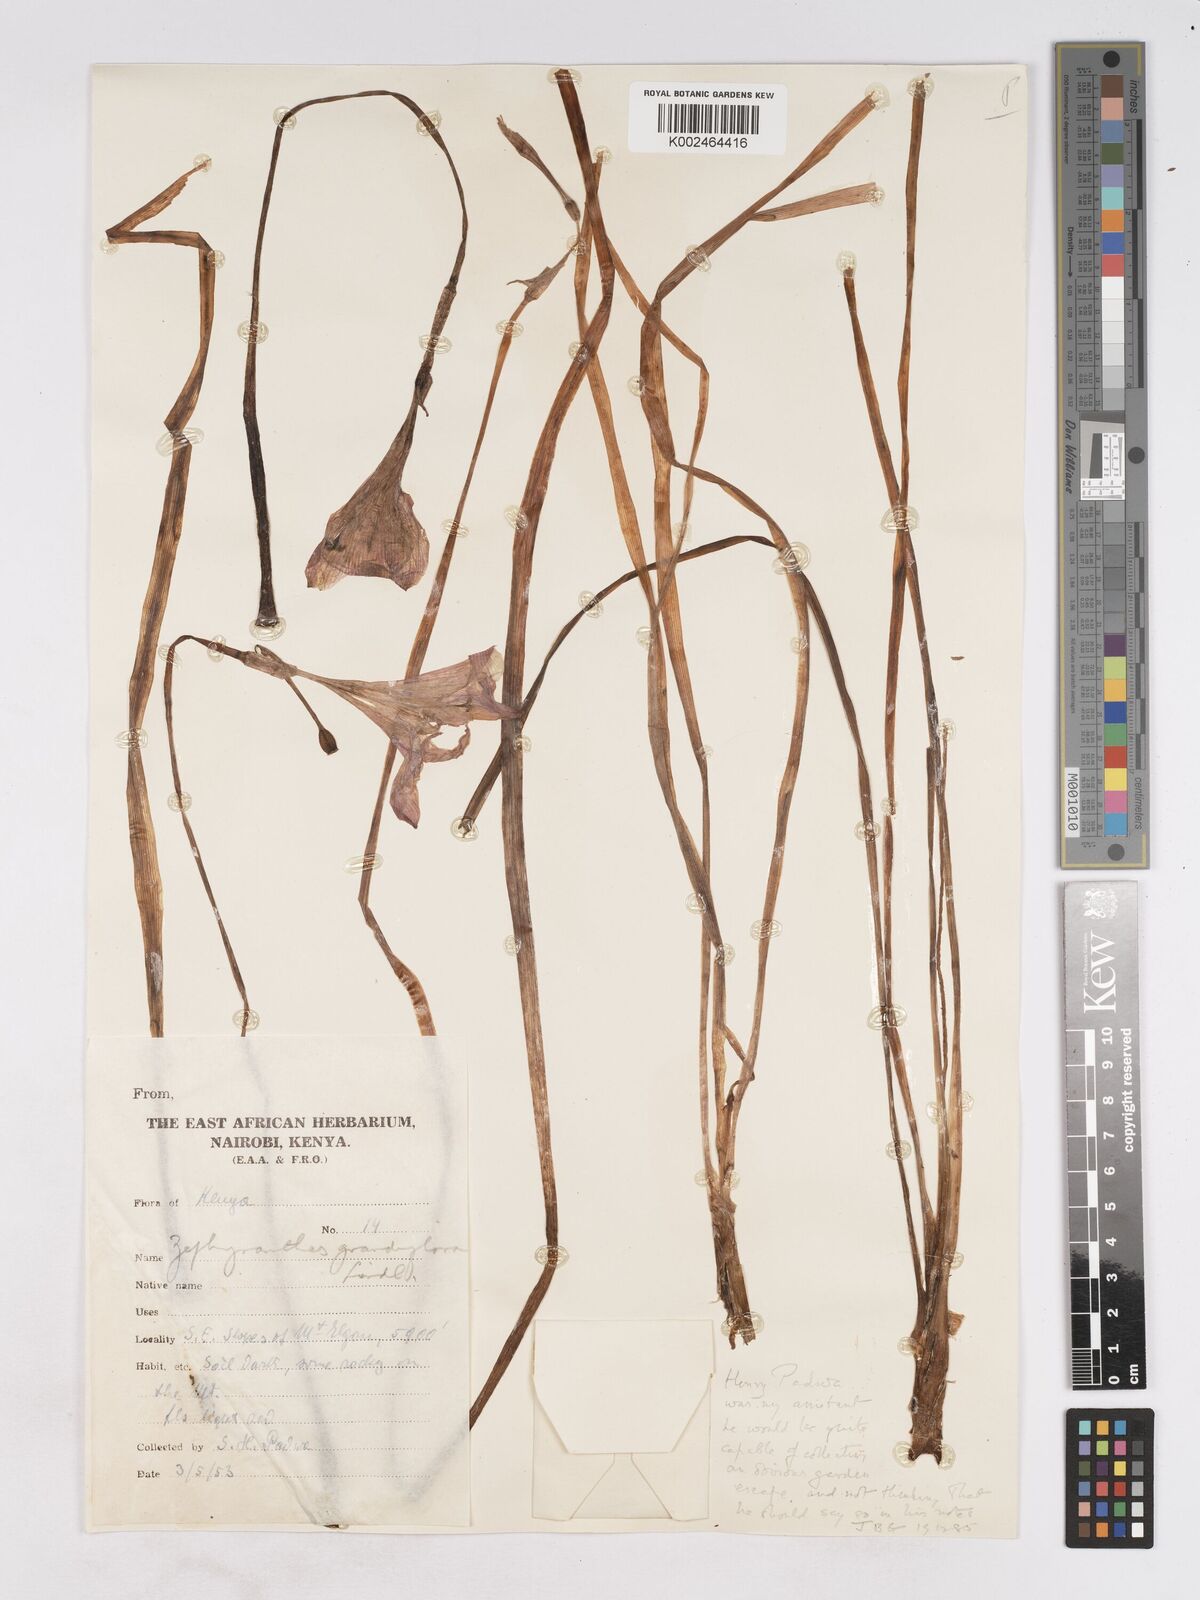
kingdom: Plantae
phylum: Tracheophyta
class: Liliopsida
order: Asparagales
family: Amaryllidaceae
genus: Zephyranthes
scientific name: Zephyranthes minuta
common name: Pink rain lily
